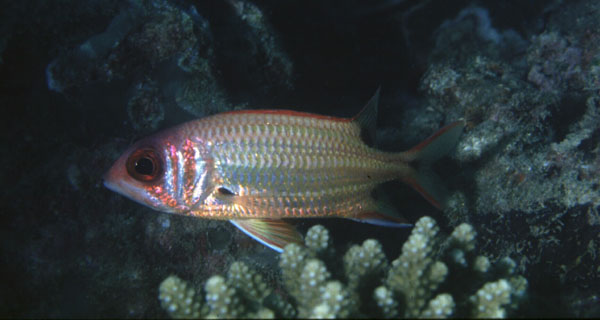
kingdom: Animalia
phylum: Chordata
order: Beryciformes
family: Holocentridae
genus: Sargocentron
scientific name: Sargocentron melanospilos
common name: Blackblotch squirrelfish
